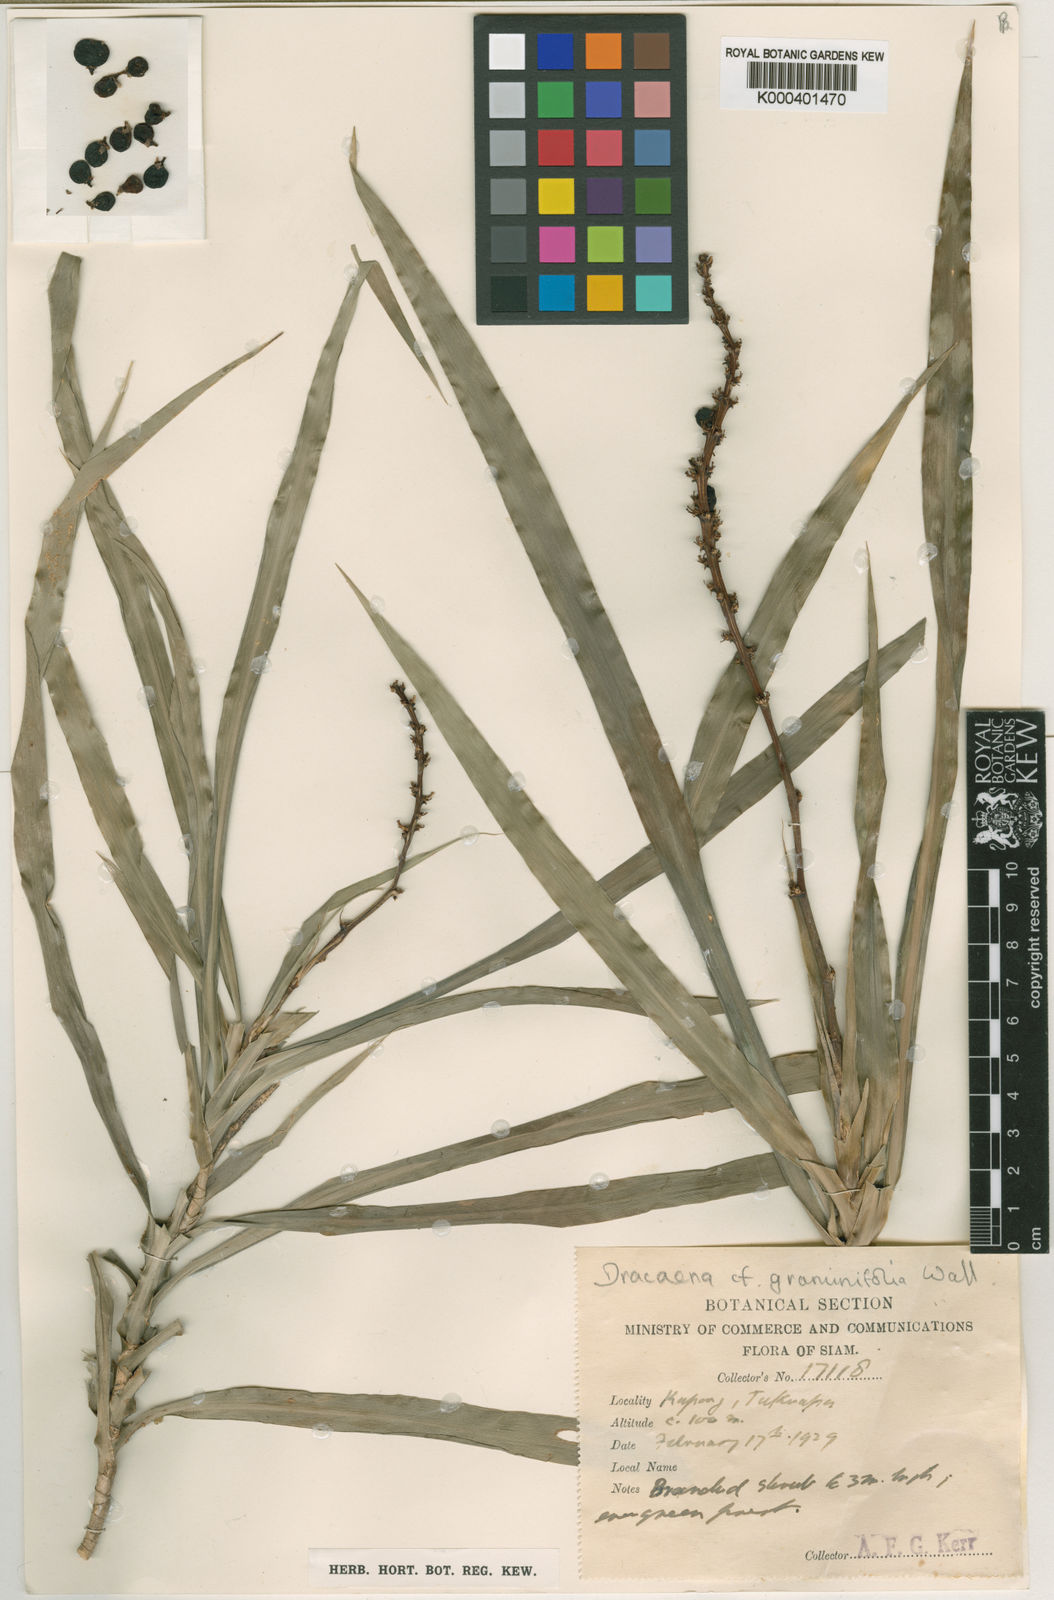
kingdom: Plantae
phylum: Tracheophyta
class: Liliopsida
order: Asparagales
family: Asparagaceae
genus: Dracaena
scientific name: Dracaena
